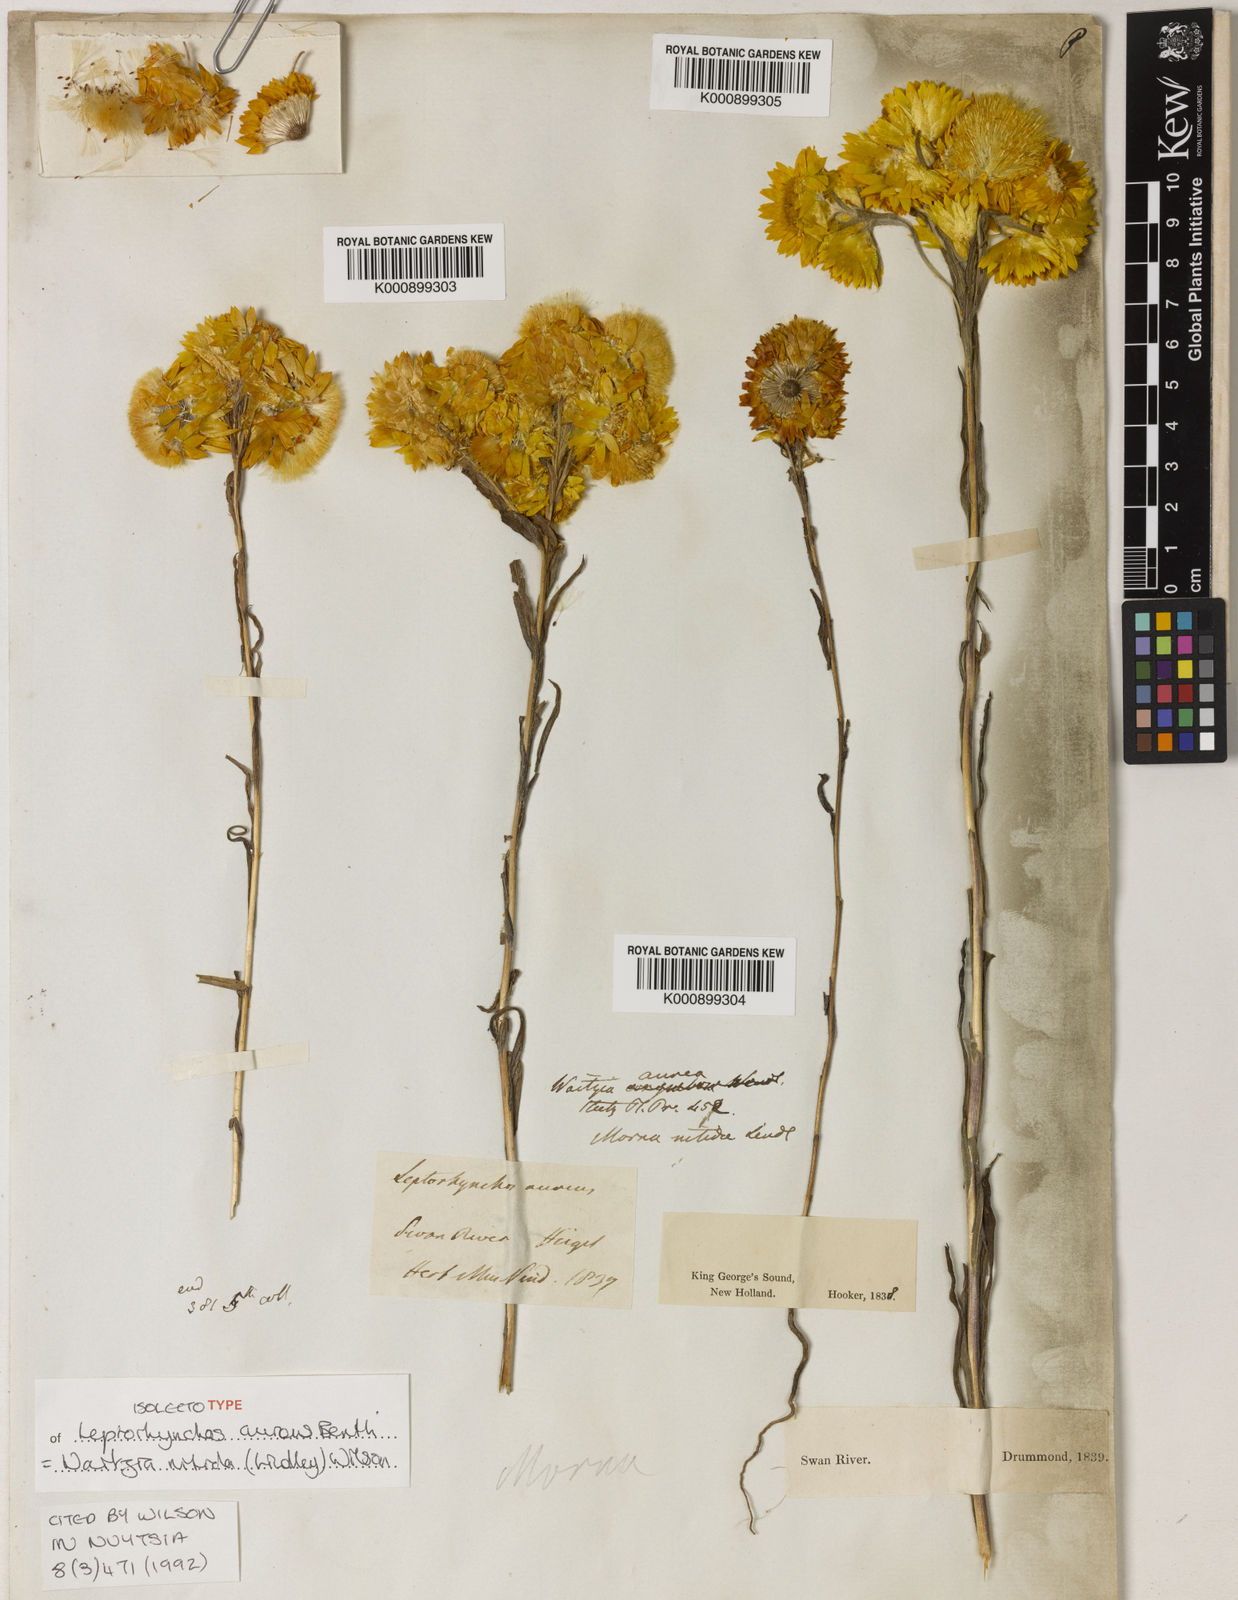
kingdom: Plantae
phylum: Tracheophyta
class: Magnoliopsida
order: Asterales
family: Asteraceae
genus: Waitzia
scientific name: Waitzia suaveolens
